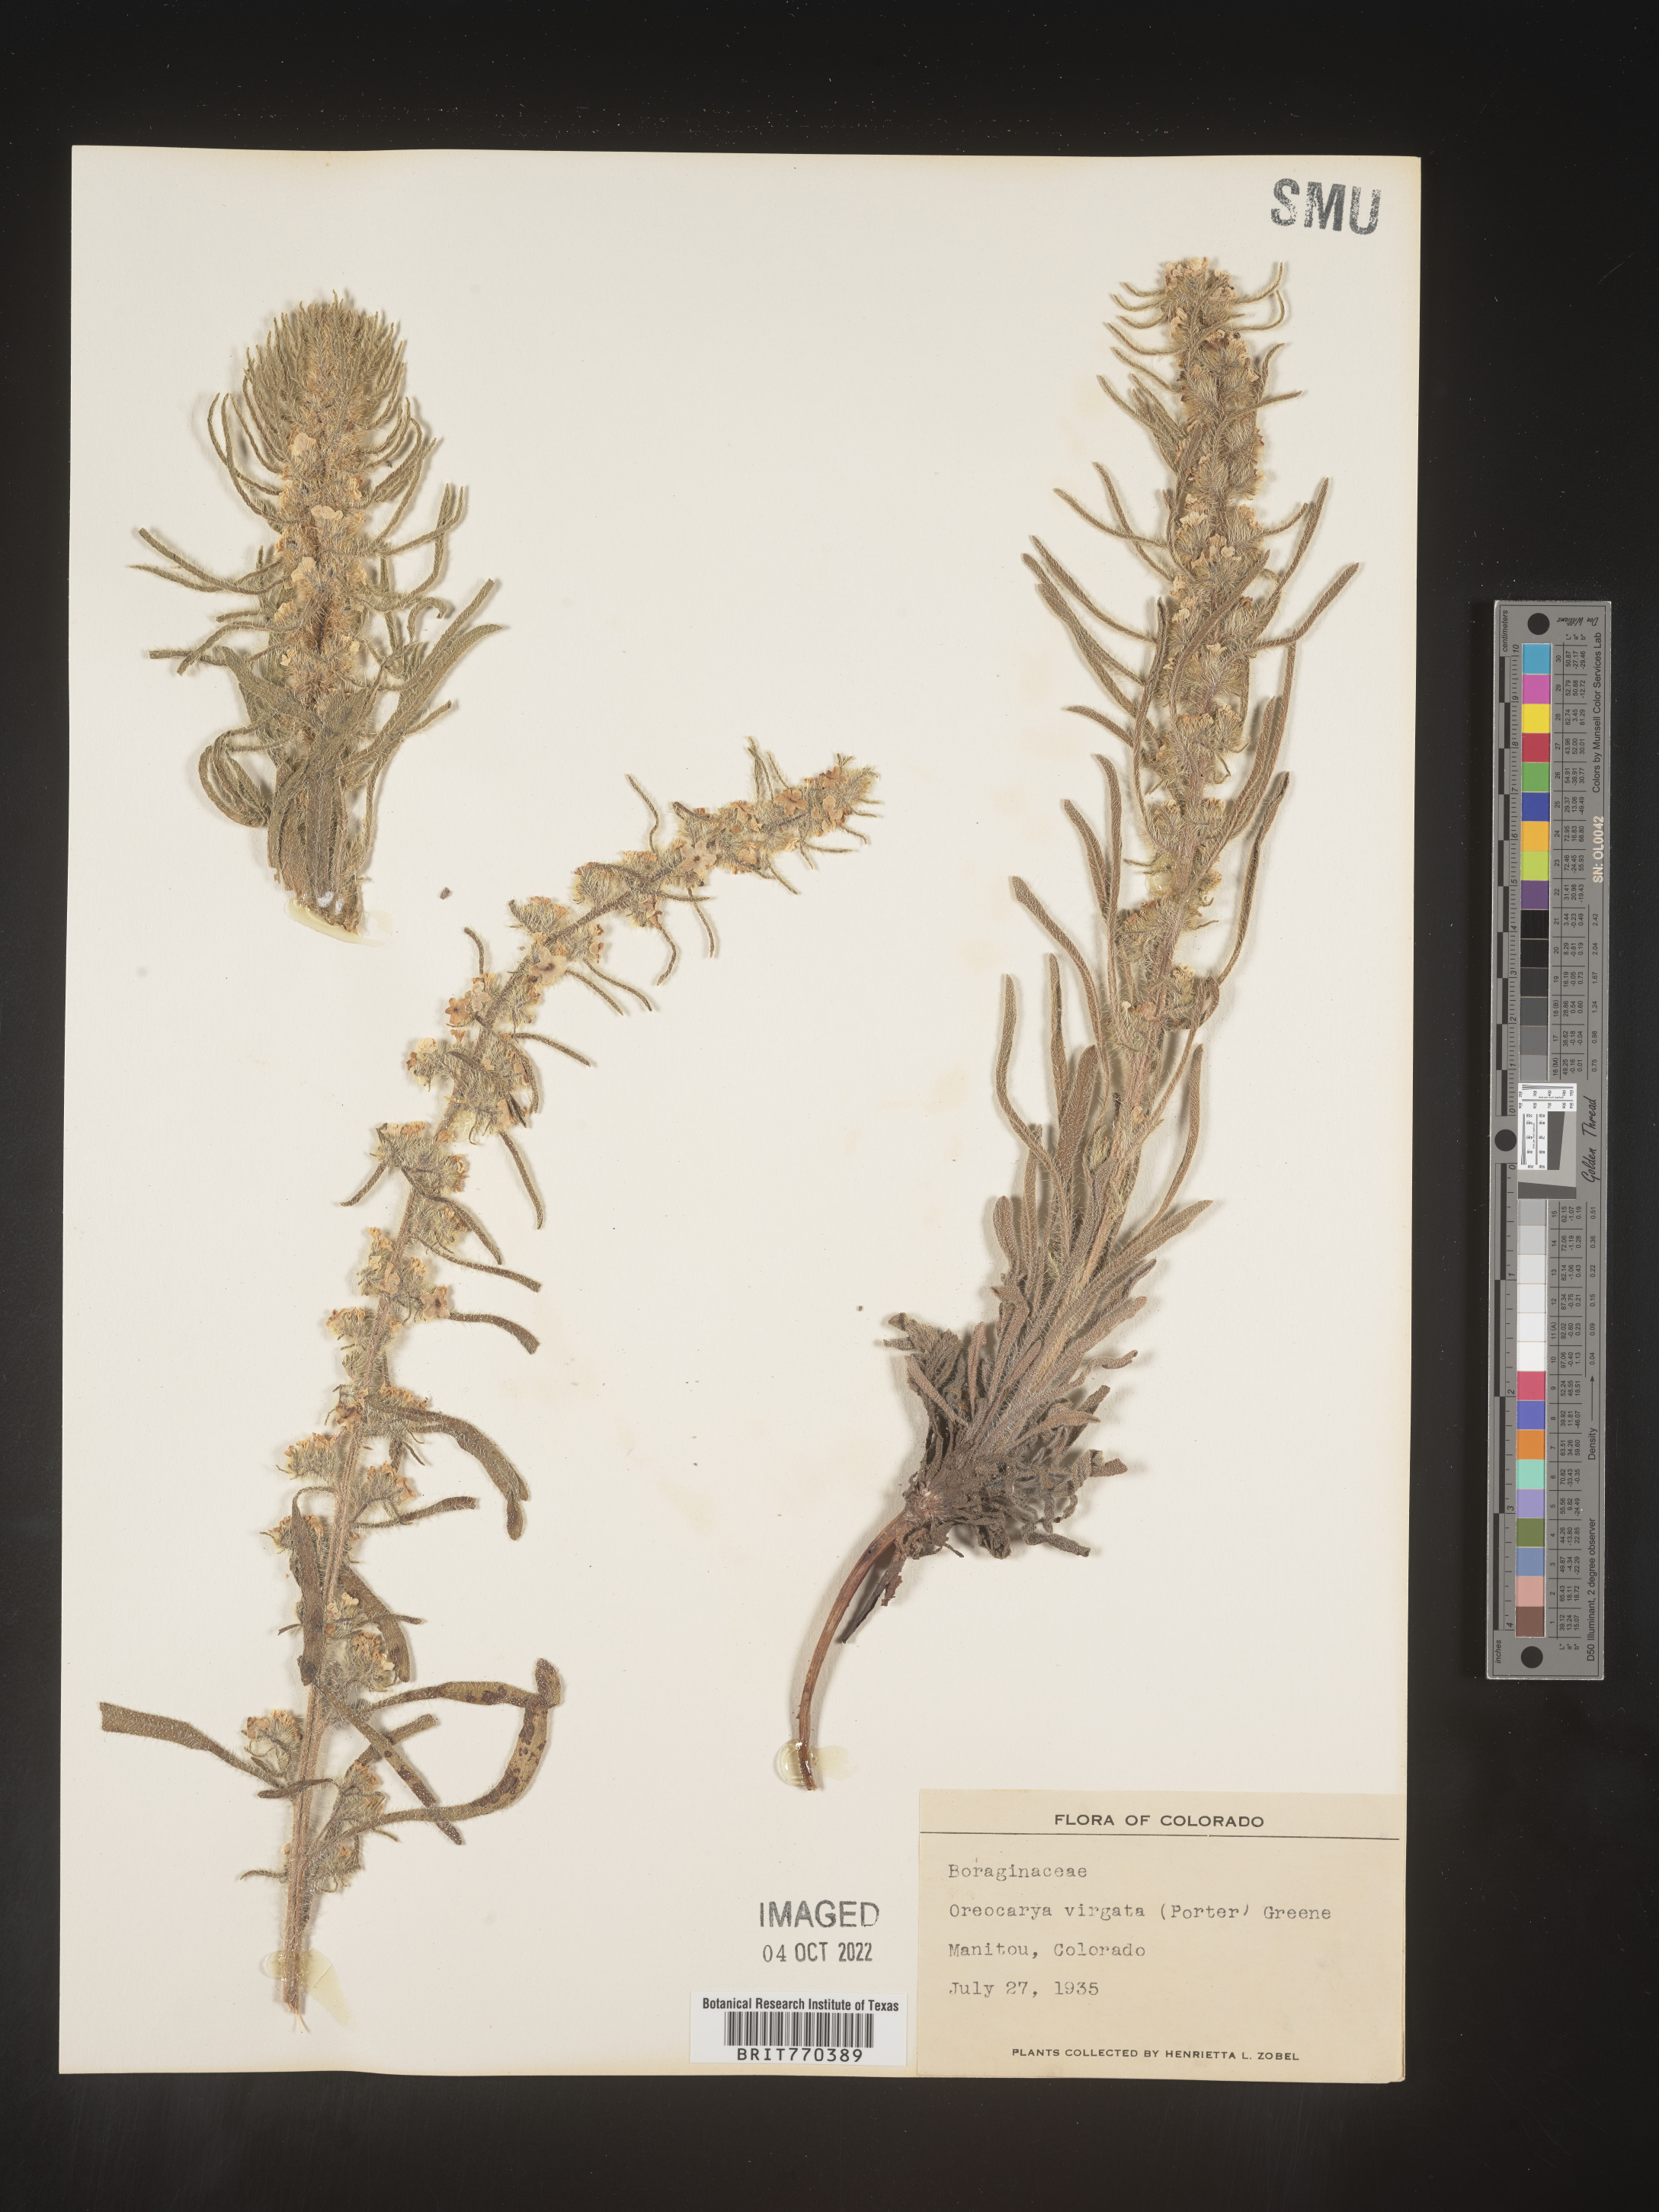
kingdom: Plantae
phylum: Tracheophyta
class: Magnoliopsida
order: Boraginales
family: Boraginaceae
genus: Oreocarya
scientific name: Oreocarya
